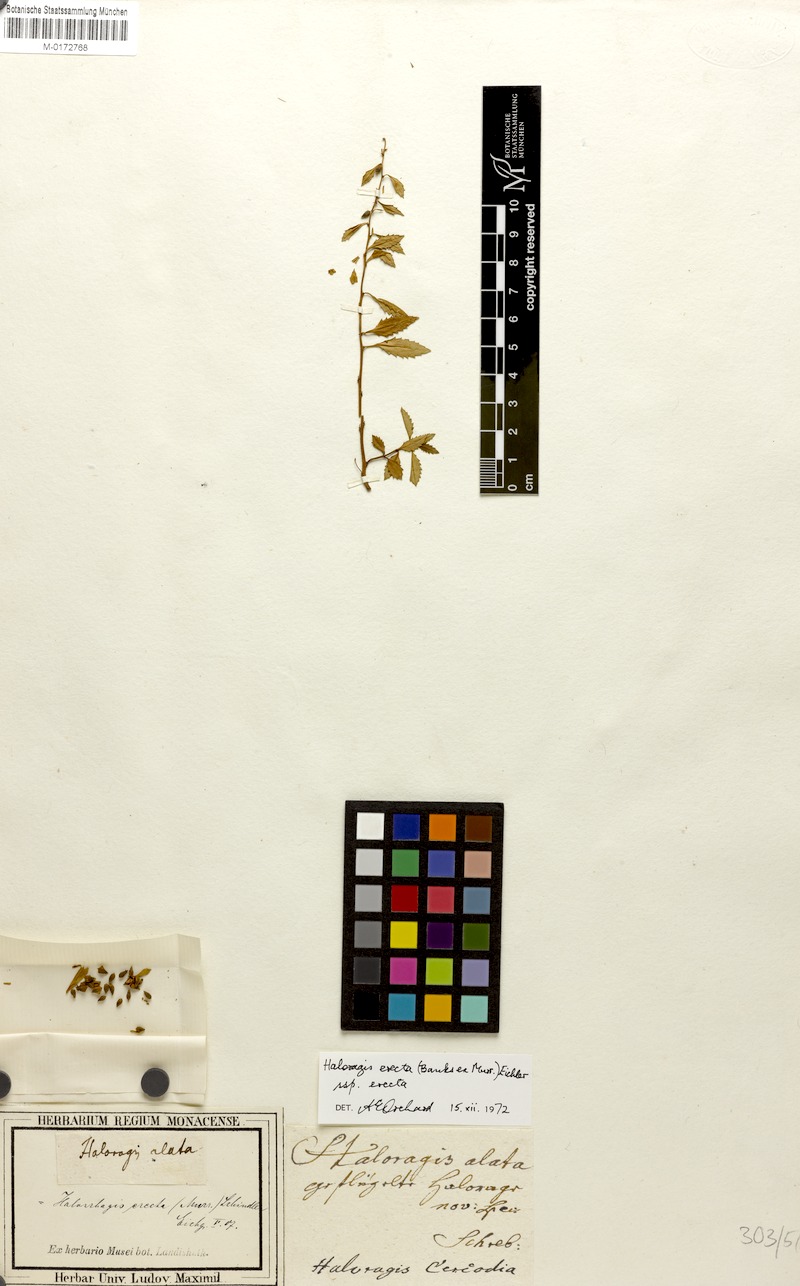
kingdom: Plantae
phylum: Tracheophyta
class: Magnoliopsida
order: Saxifragales
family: Haloragaceae
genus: Haloragis
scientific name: Haloragis erecta
